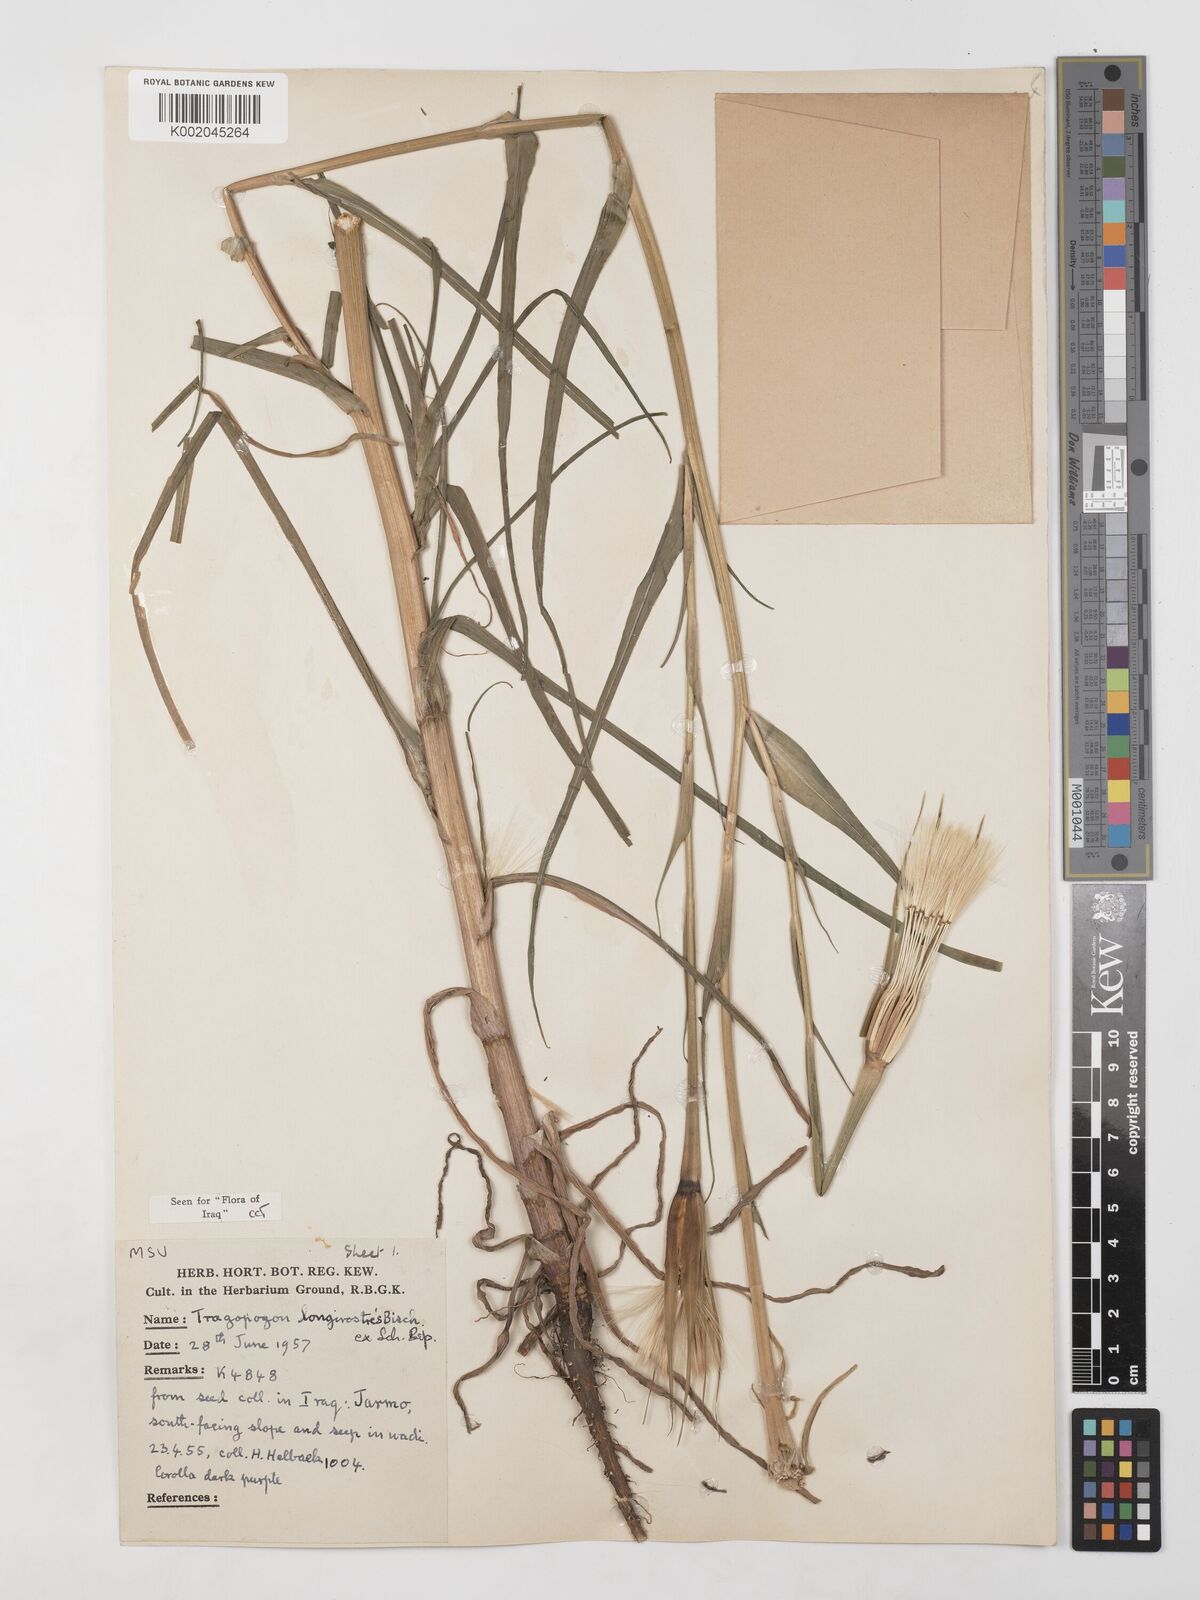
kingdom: Plantae
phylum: Tracheophyta
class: Magnoliopsida
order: Asterales
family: Asteraceae
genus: Tragopogon
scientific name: Tragopogon coelesyriacus
